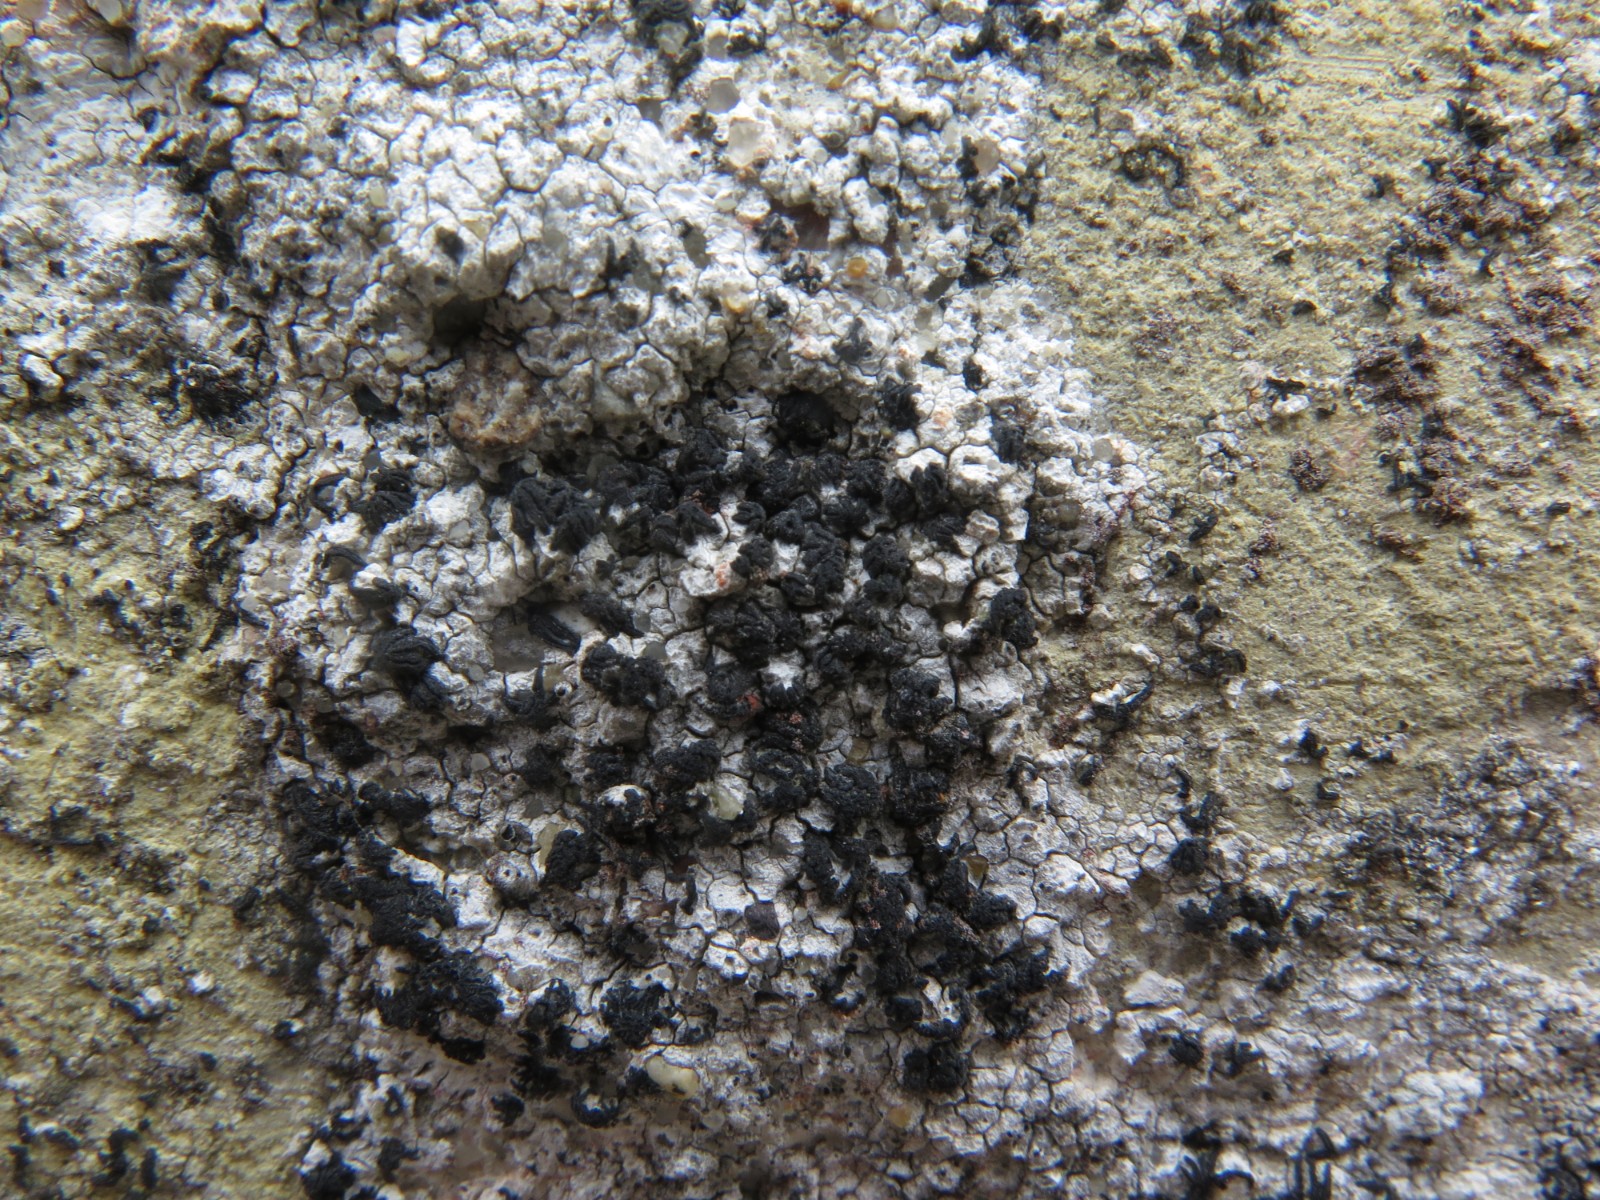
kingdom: Fungi
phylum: Ascomycota
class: Arthoniomycetes
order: Arthoniales
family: Arthoniaceae
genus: Arthonia
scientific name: Arthonia calcarea
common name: kalk-bogstavlav
